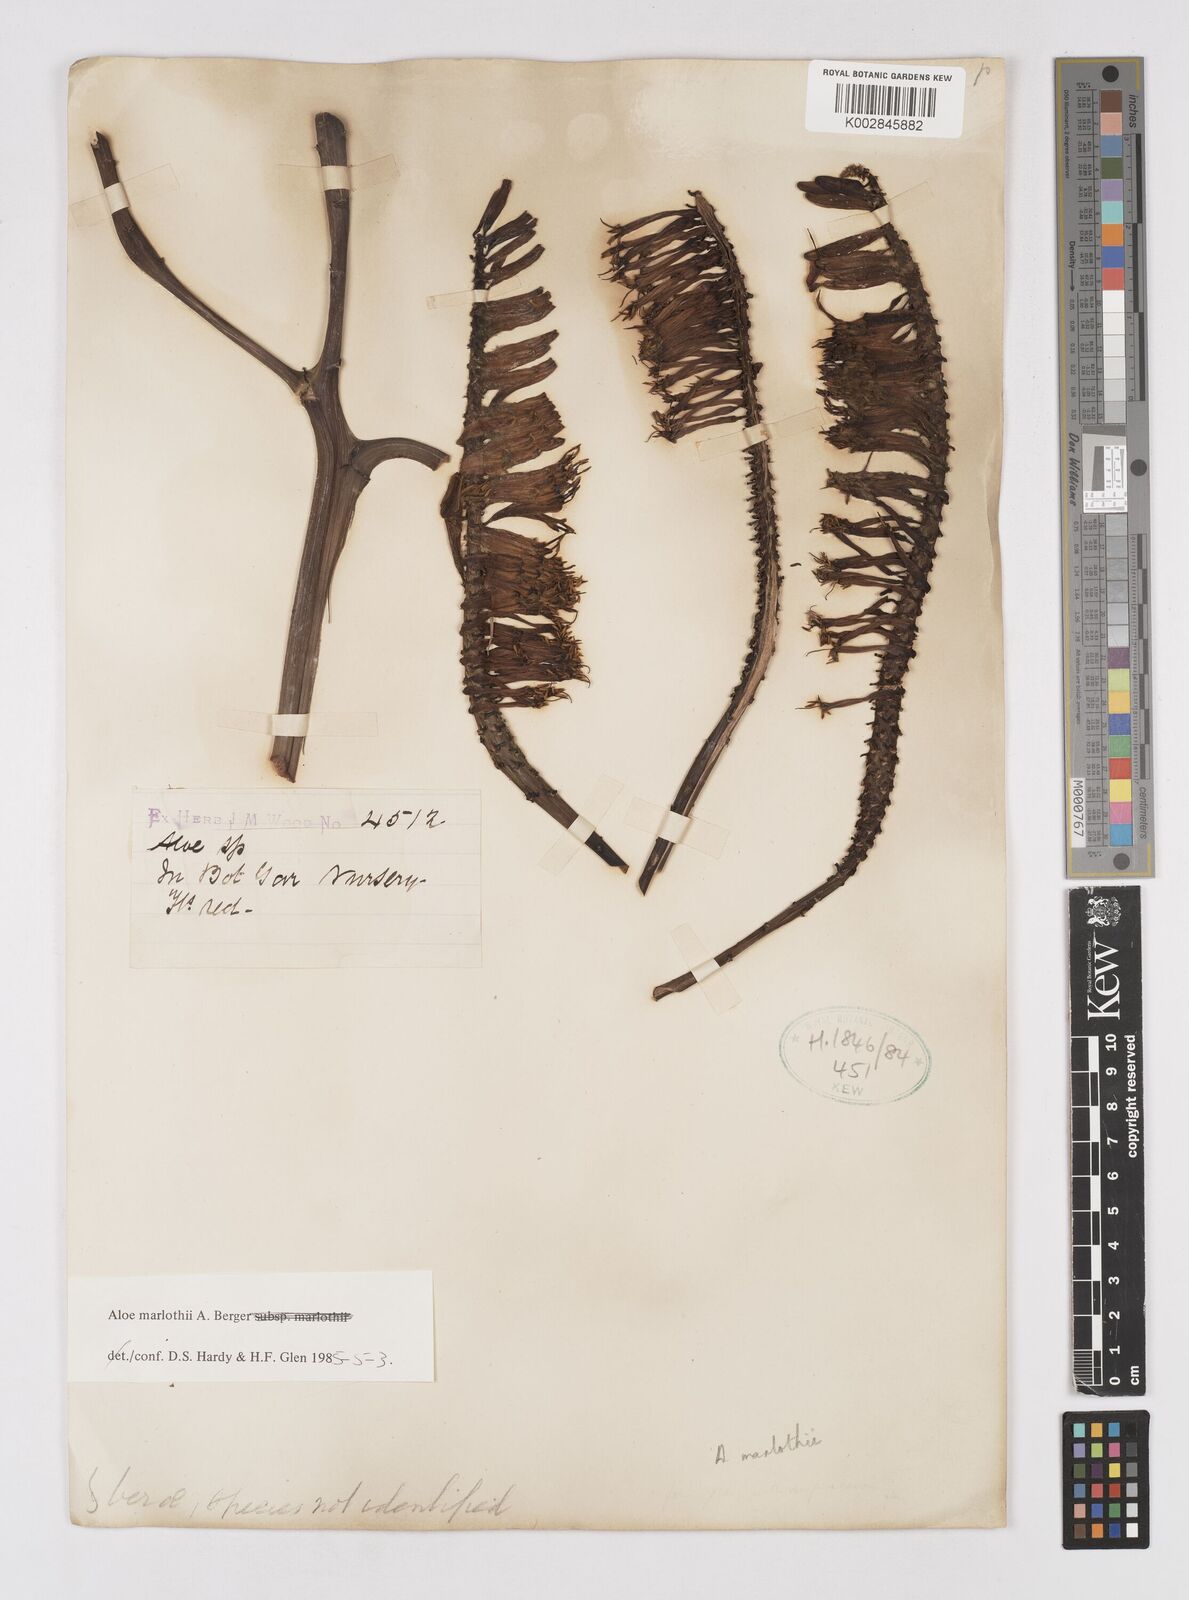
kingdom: Plantae
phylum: Tracheophyta
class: Liliopsida
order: Asparagales
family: Asphodelaceae
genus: Aloe
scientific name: Aloe marlothii
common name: Flat-flowered aloe
